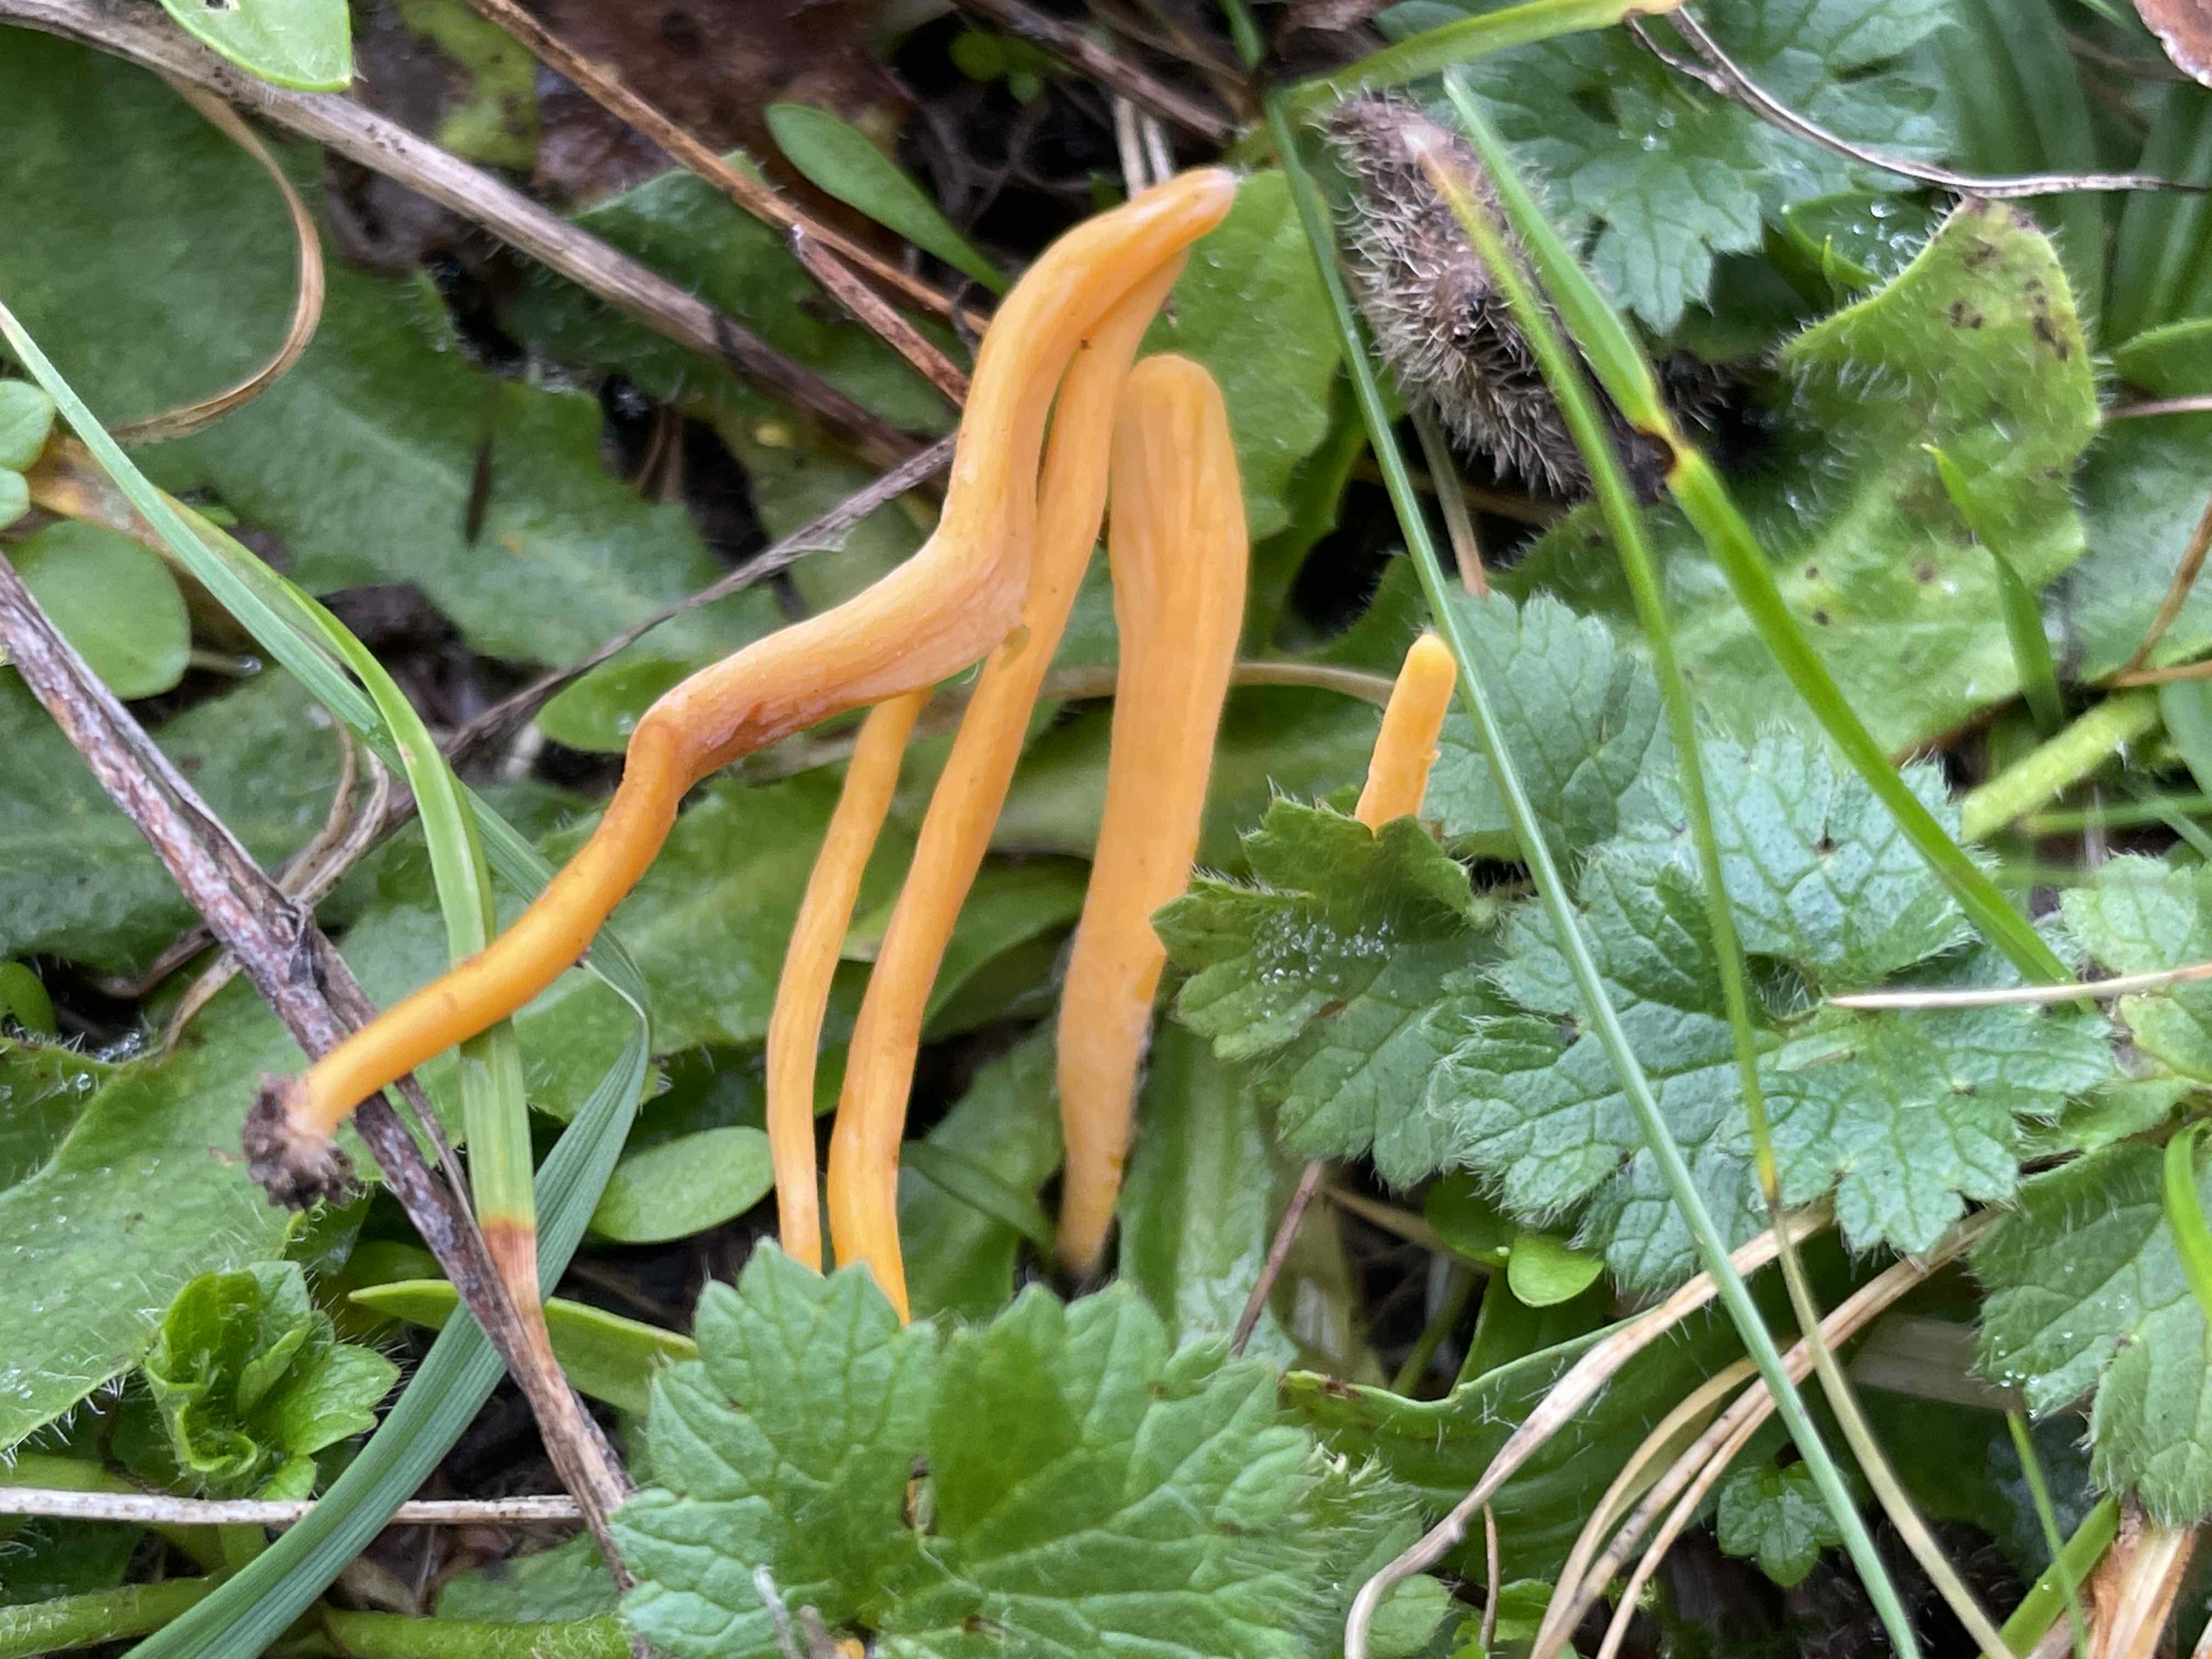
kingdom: Fungi
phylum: Basidiomycota
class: Agaricomycetes
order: Agaricales
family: Clavariaceae
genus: Clavulinopsis
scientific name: Clavulinopsis luteoalba
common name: abrikos-køllesvamp
